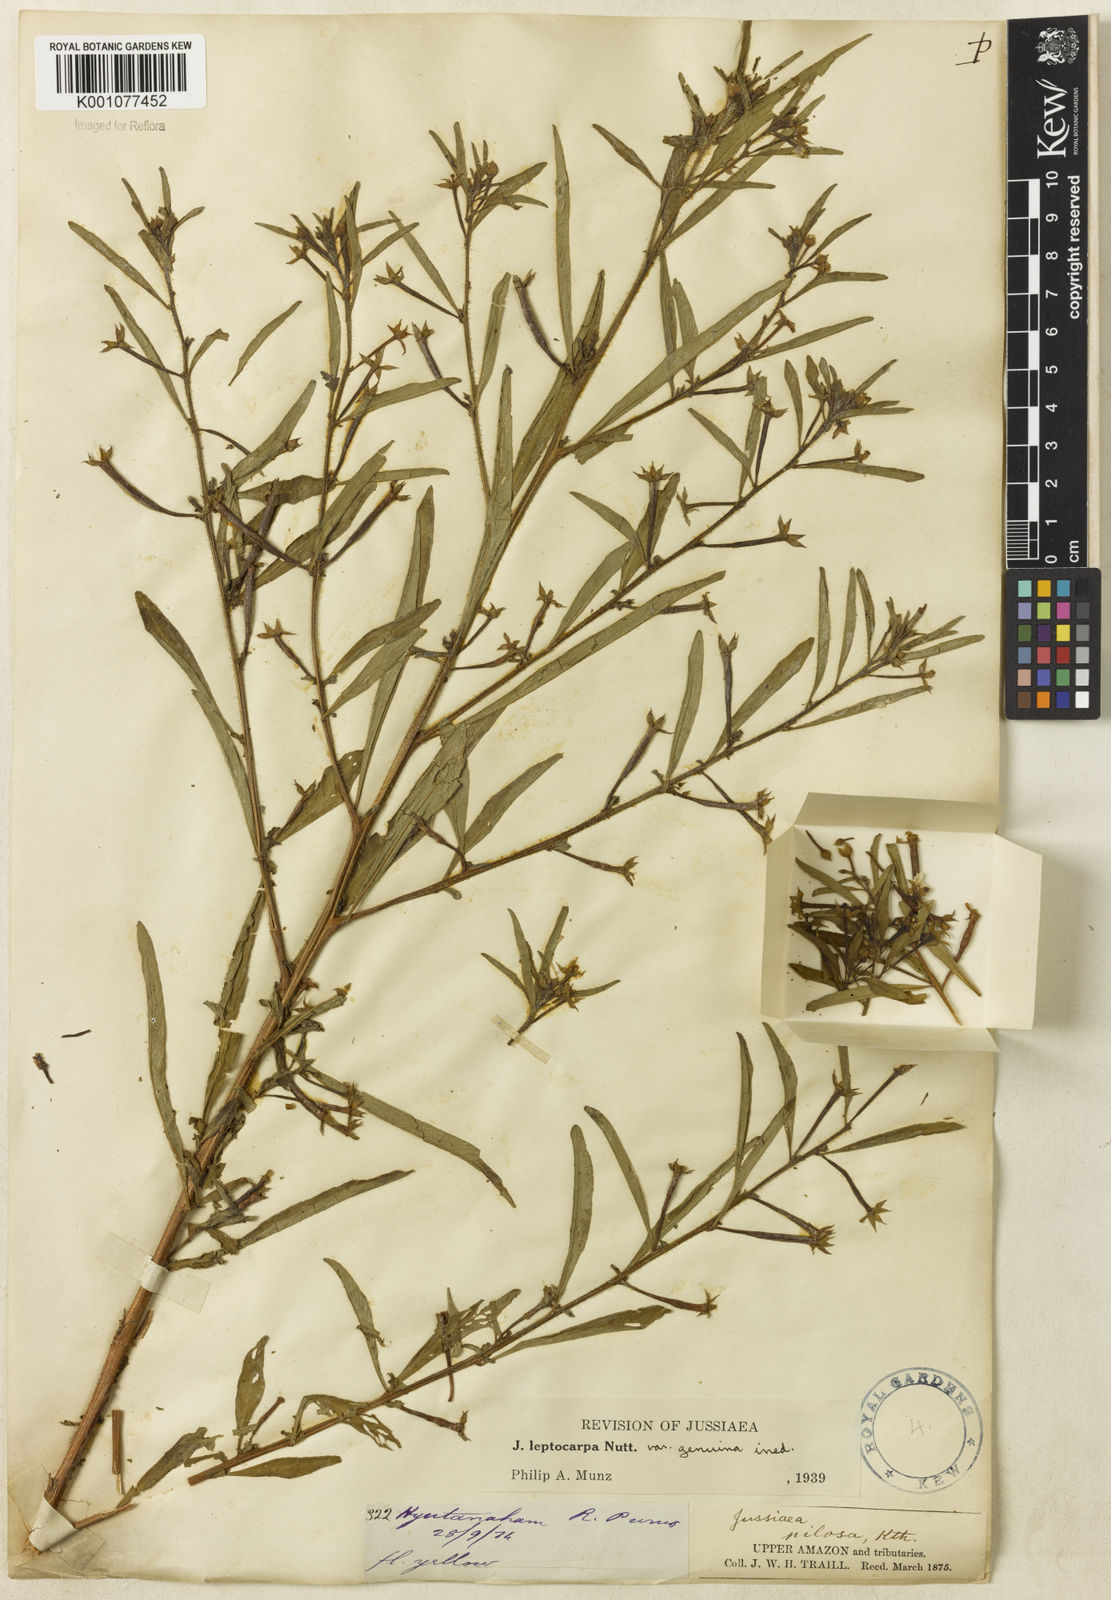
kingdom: Plantae
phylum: Tracheophyta
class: Magnoliopsida
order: Myrtales
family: Onagraceae
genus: Ludwigia
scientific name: Ludwigia leptocarpa
